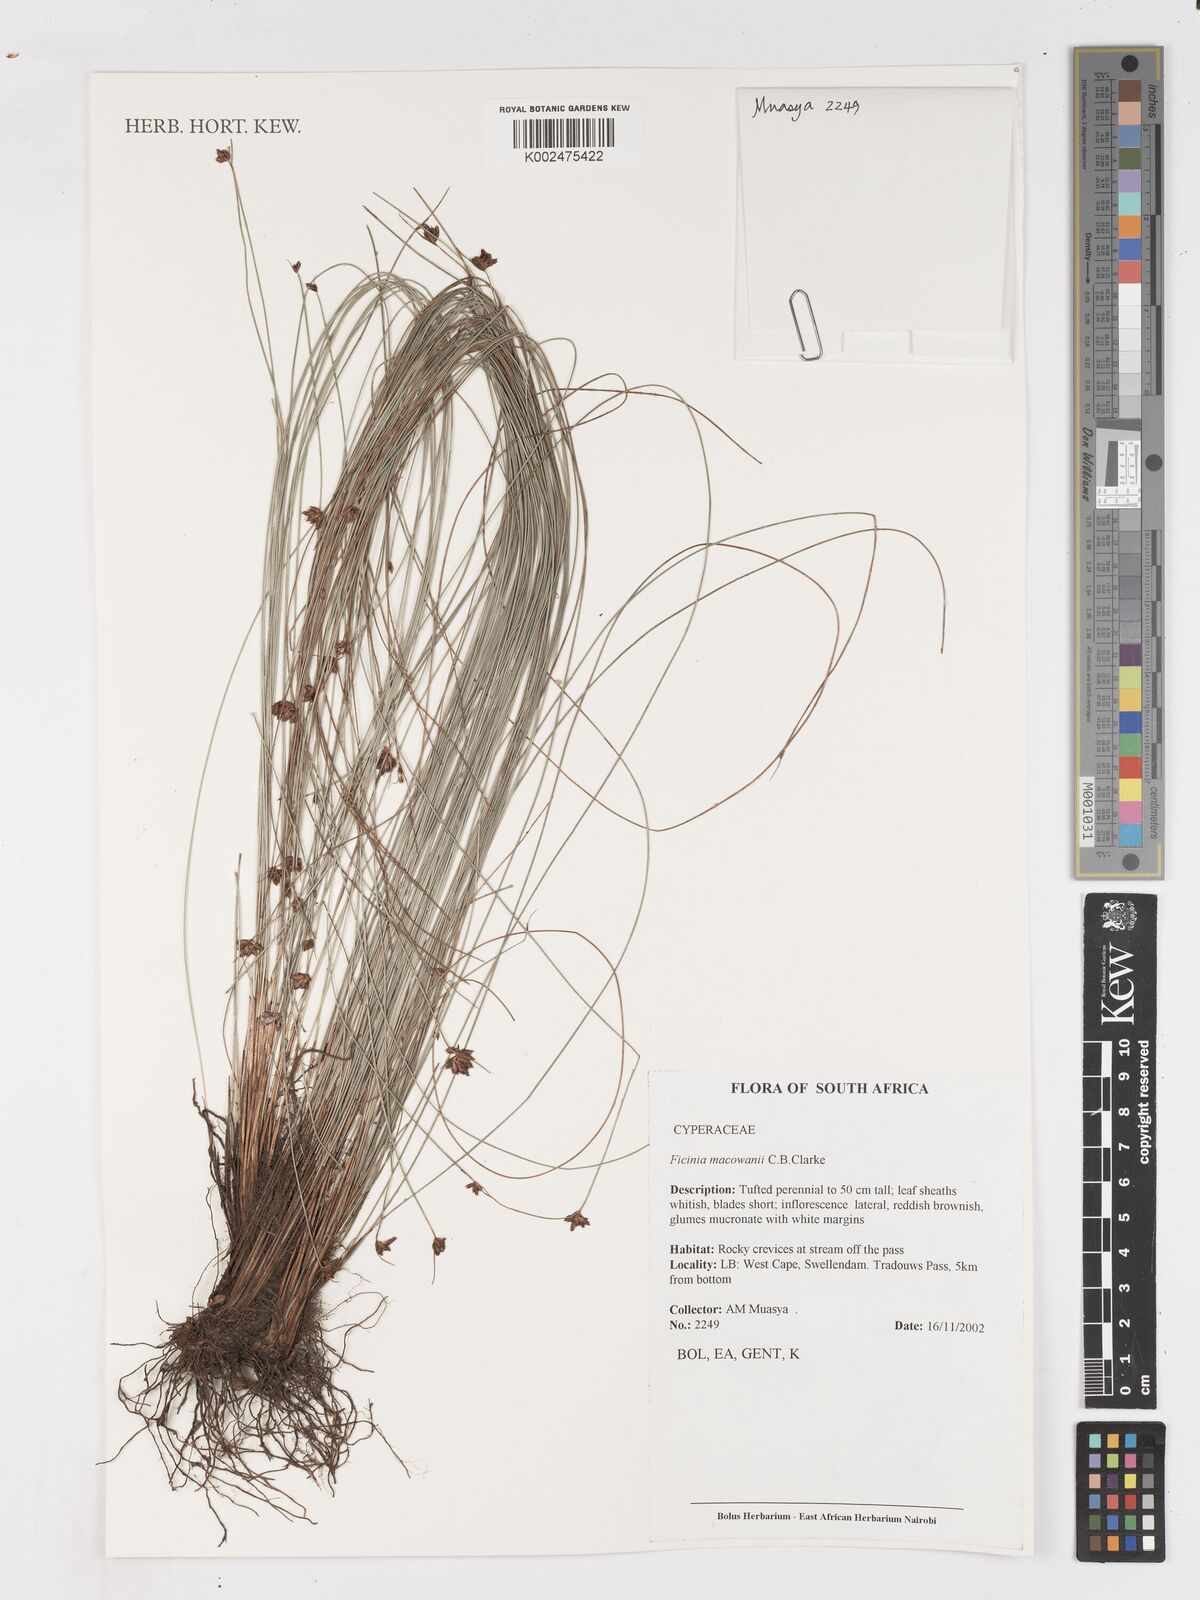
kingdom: Plantae
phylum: Tracheophyta
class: Liliopsida
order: Poales
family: Cyperaceae
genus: Ficinia
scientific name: Ficinia acuminata
